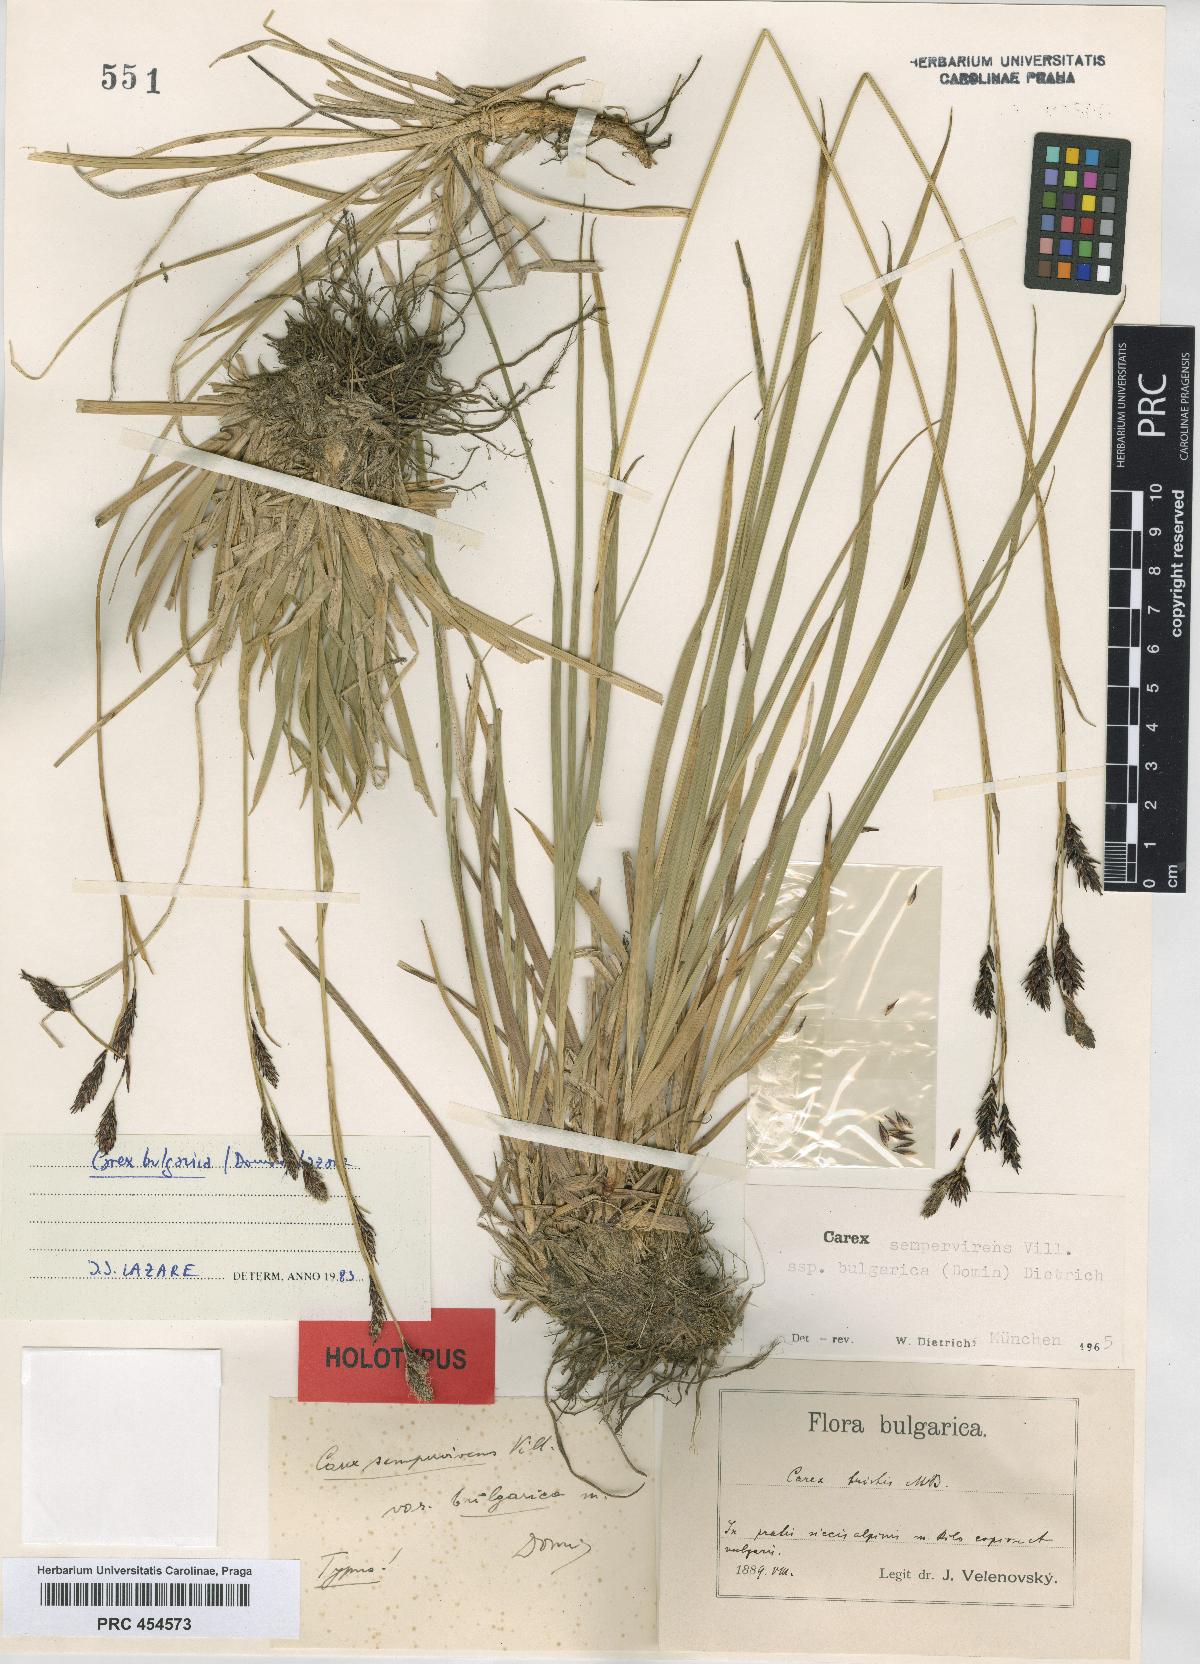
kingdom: Plantae
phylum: Tracheophyta
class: Liliopsida
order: Poales
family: Cyperaceae
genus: Carex
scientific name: Carex lazarei
